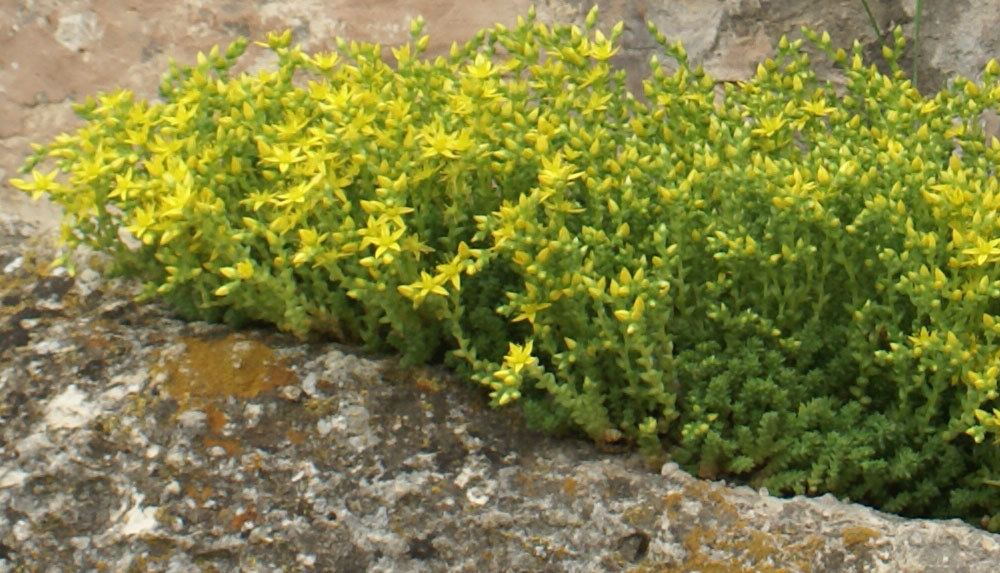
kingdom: Plantae
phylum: Tracheophyta
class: Magnoliopsida
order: Saxifragales
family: Crassulaceae
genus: Sedum
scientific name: Sedum acre
